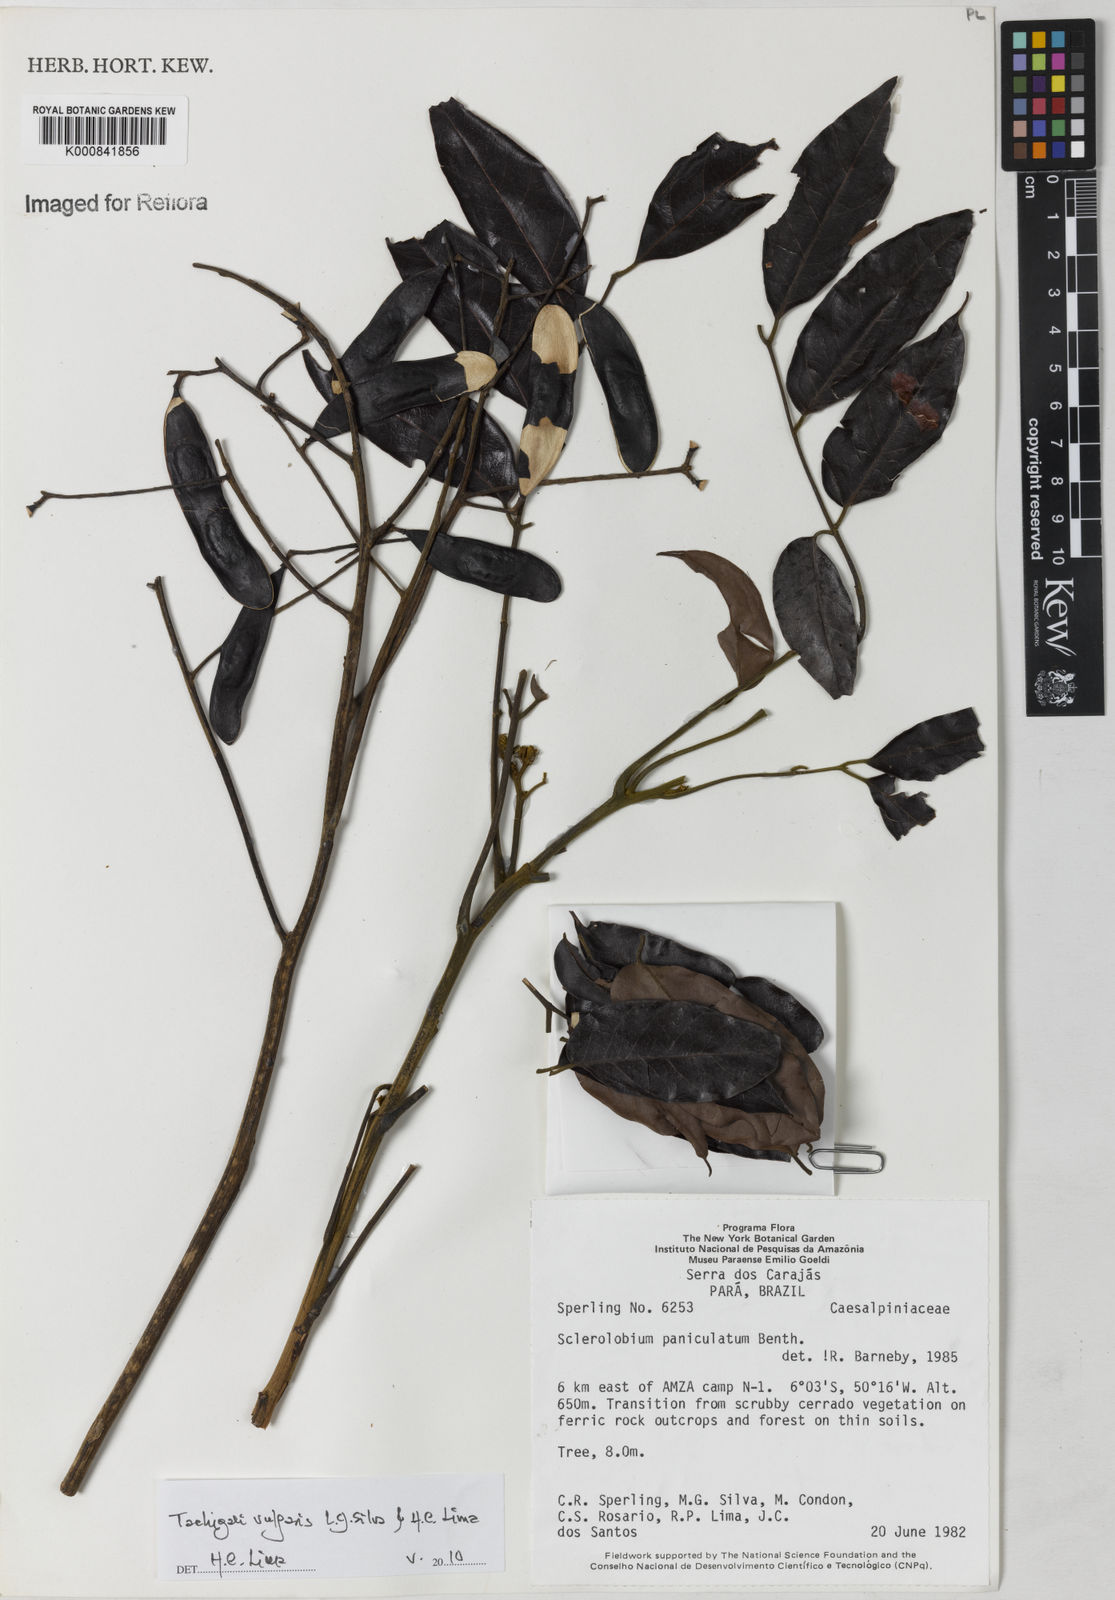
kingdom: Plantae
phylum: Tracheophyta
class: Magnoliopsida
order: Fabales
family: Fabaceae
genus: Tachigali
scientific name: Tachigali vulgaris
